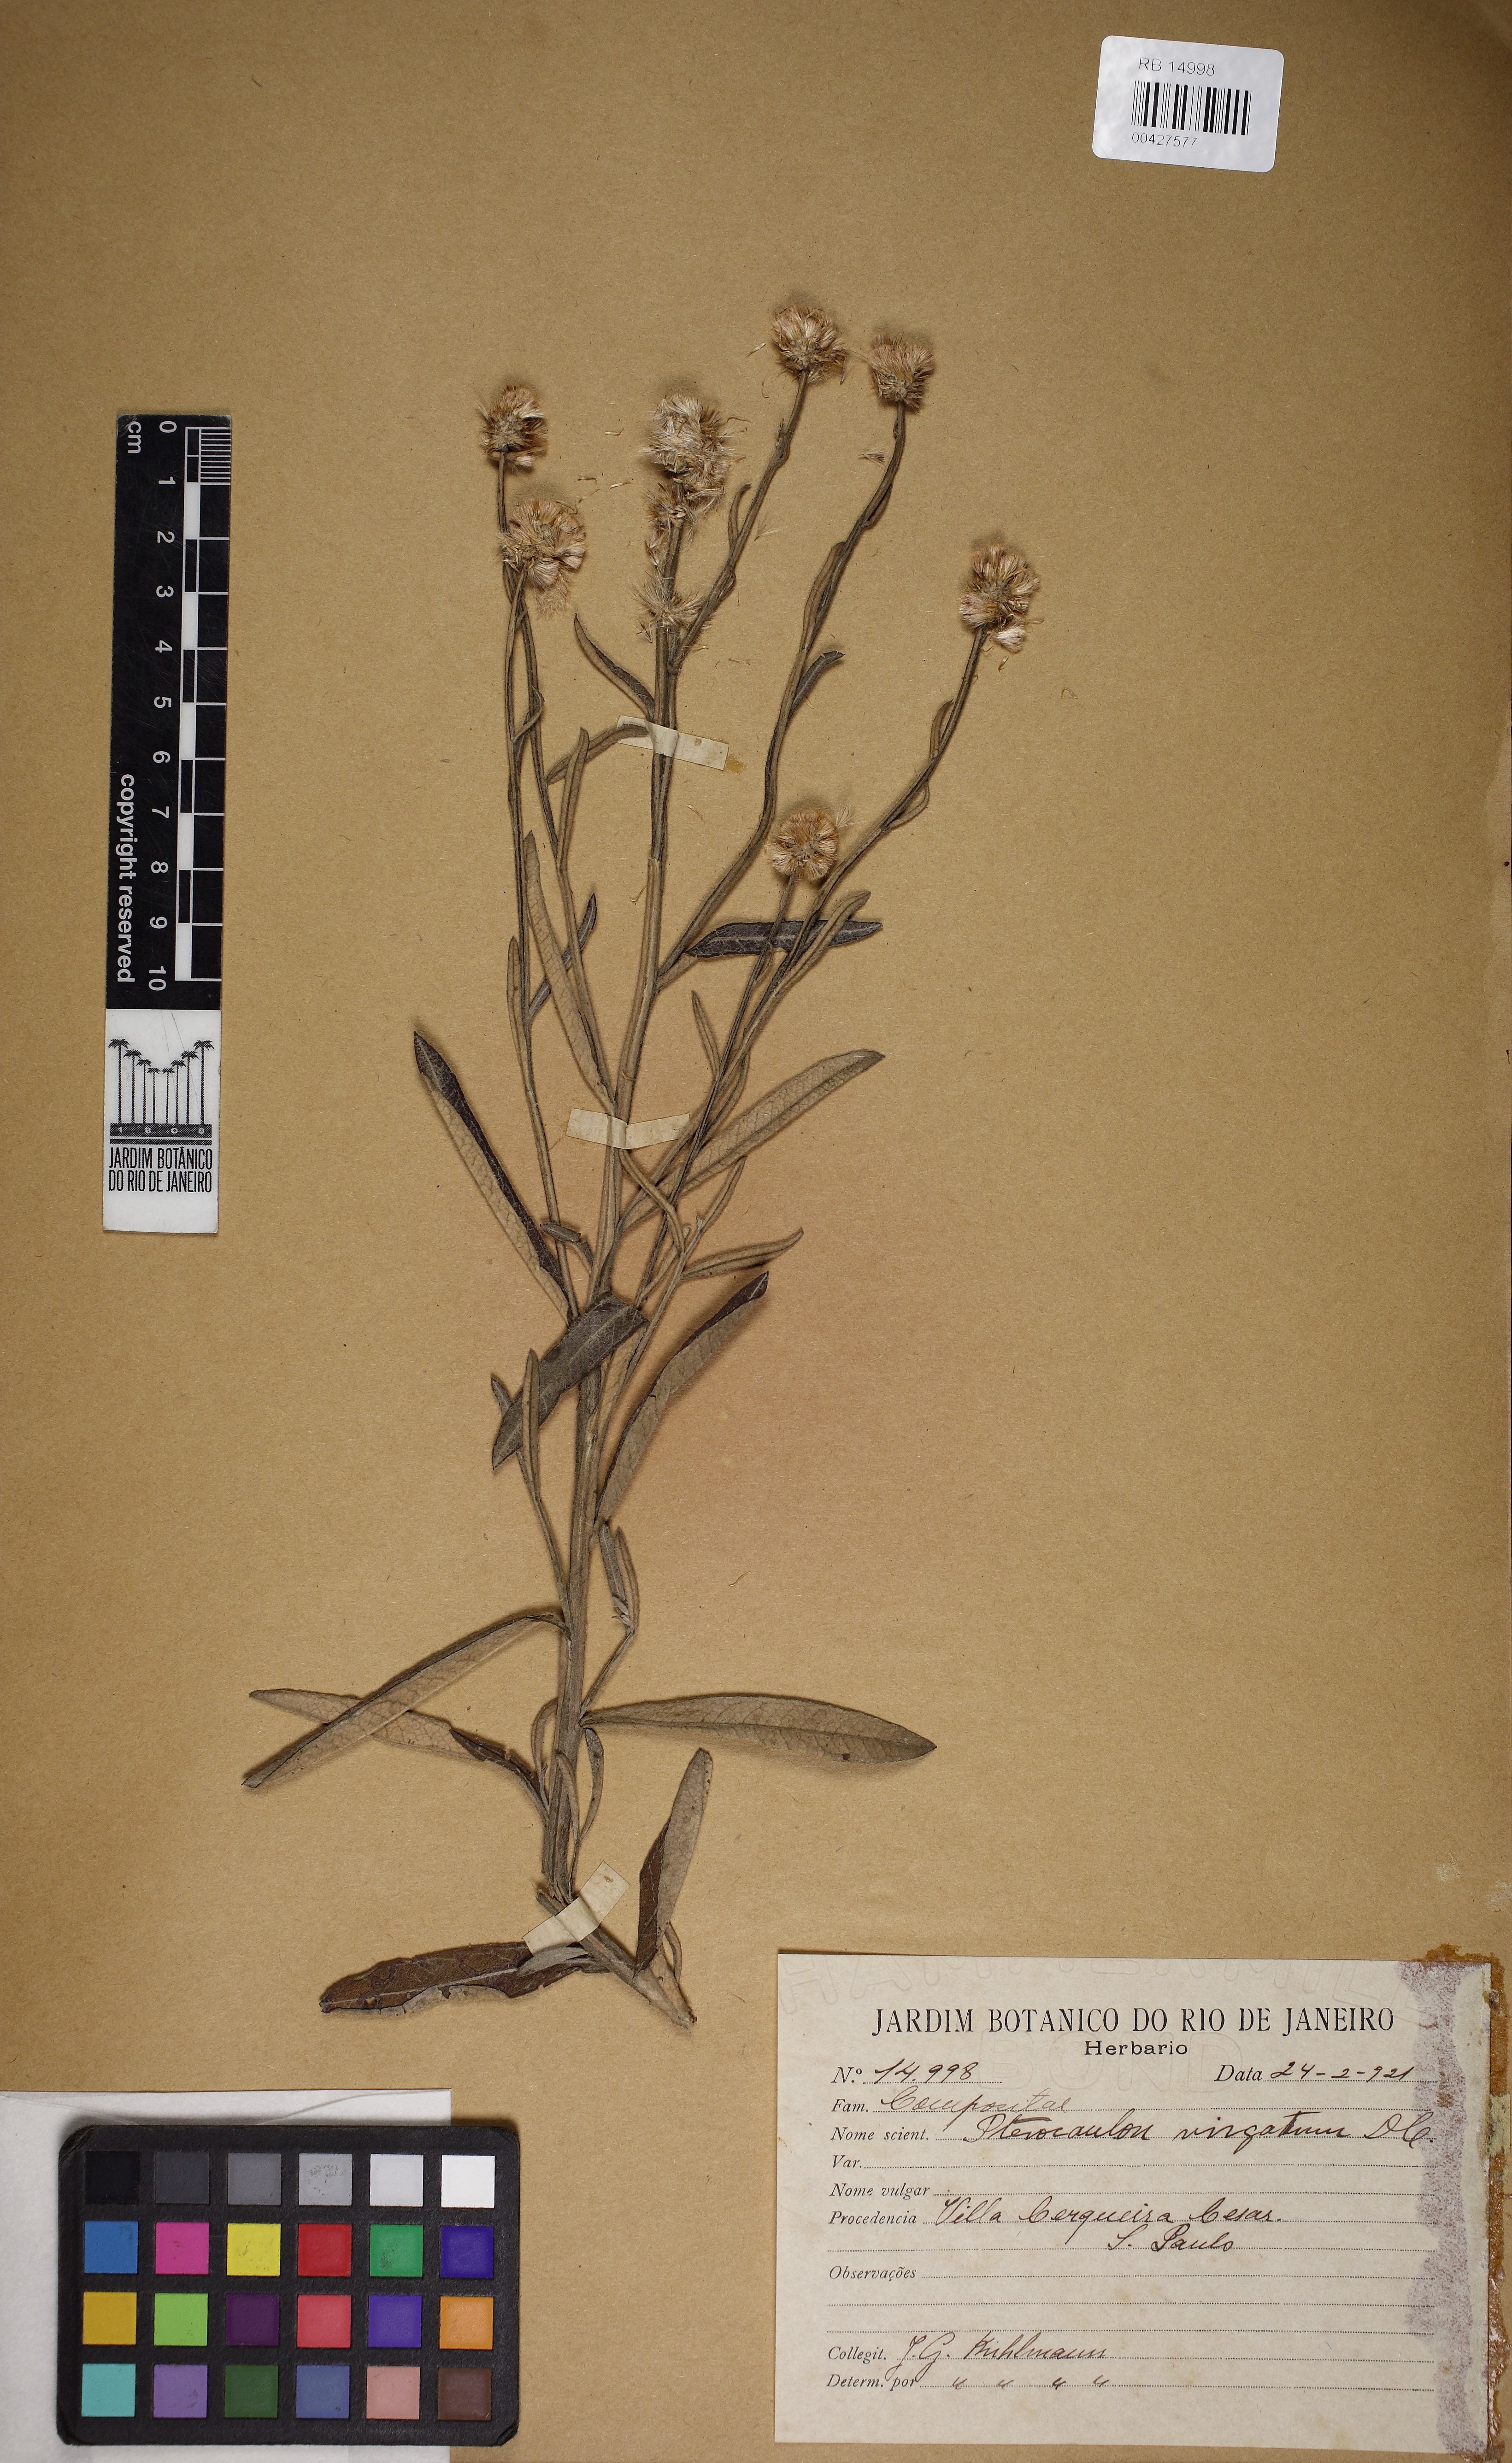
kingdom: Plantae
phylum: Tracheophyta
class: Magnoliopsida
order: Asterales
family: Asteraceae
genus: Pterocaulon
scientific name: Pterocaulon angustifolium
